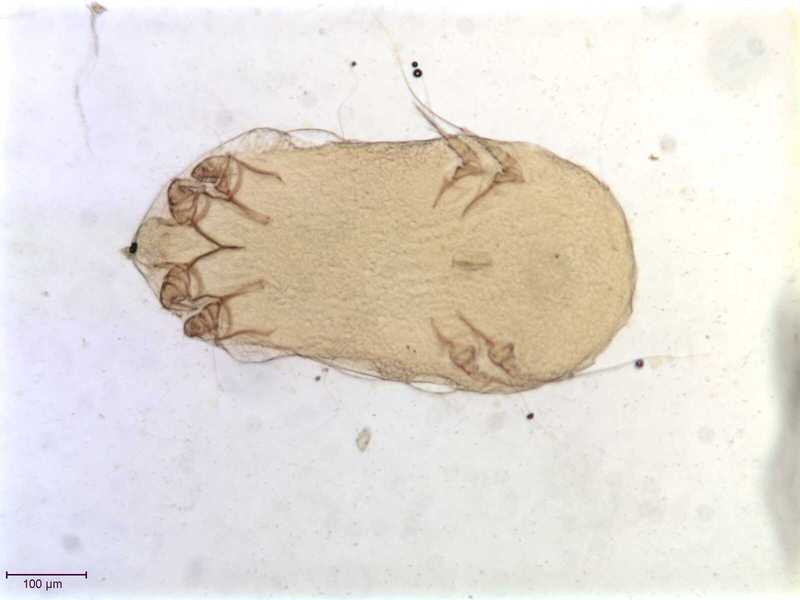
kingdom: Animalia
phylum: Arthropoda
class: Arachnida
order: Sarcoptiformes
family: Gabuciniidae
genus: Gabucinia
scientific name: Gabucinia nisi
